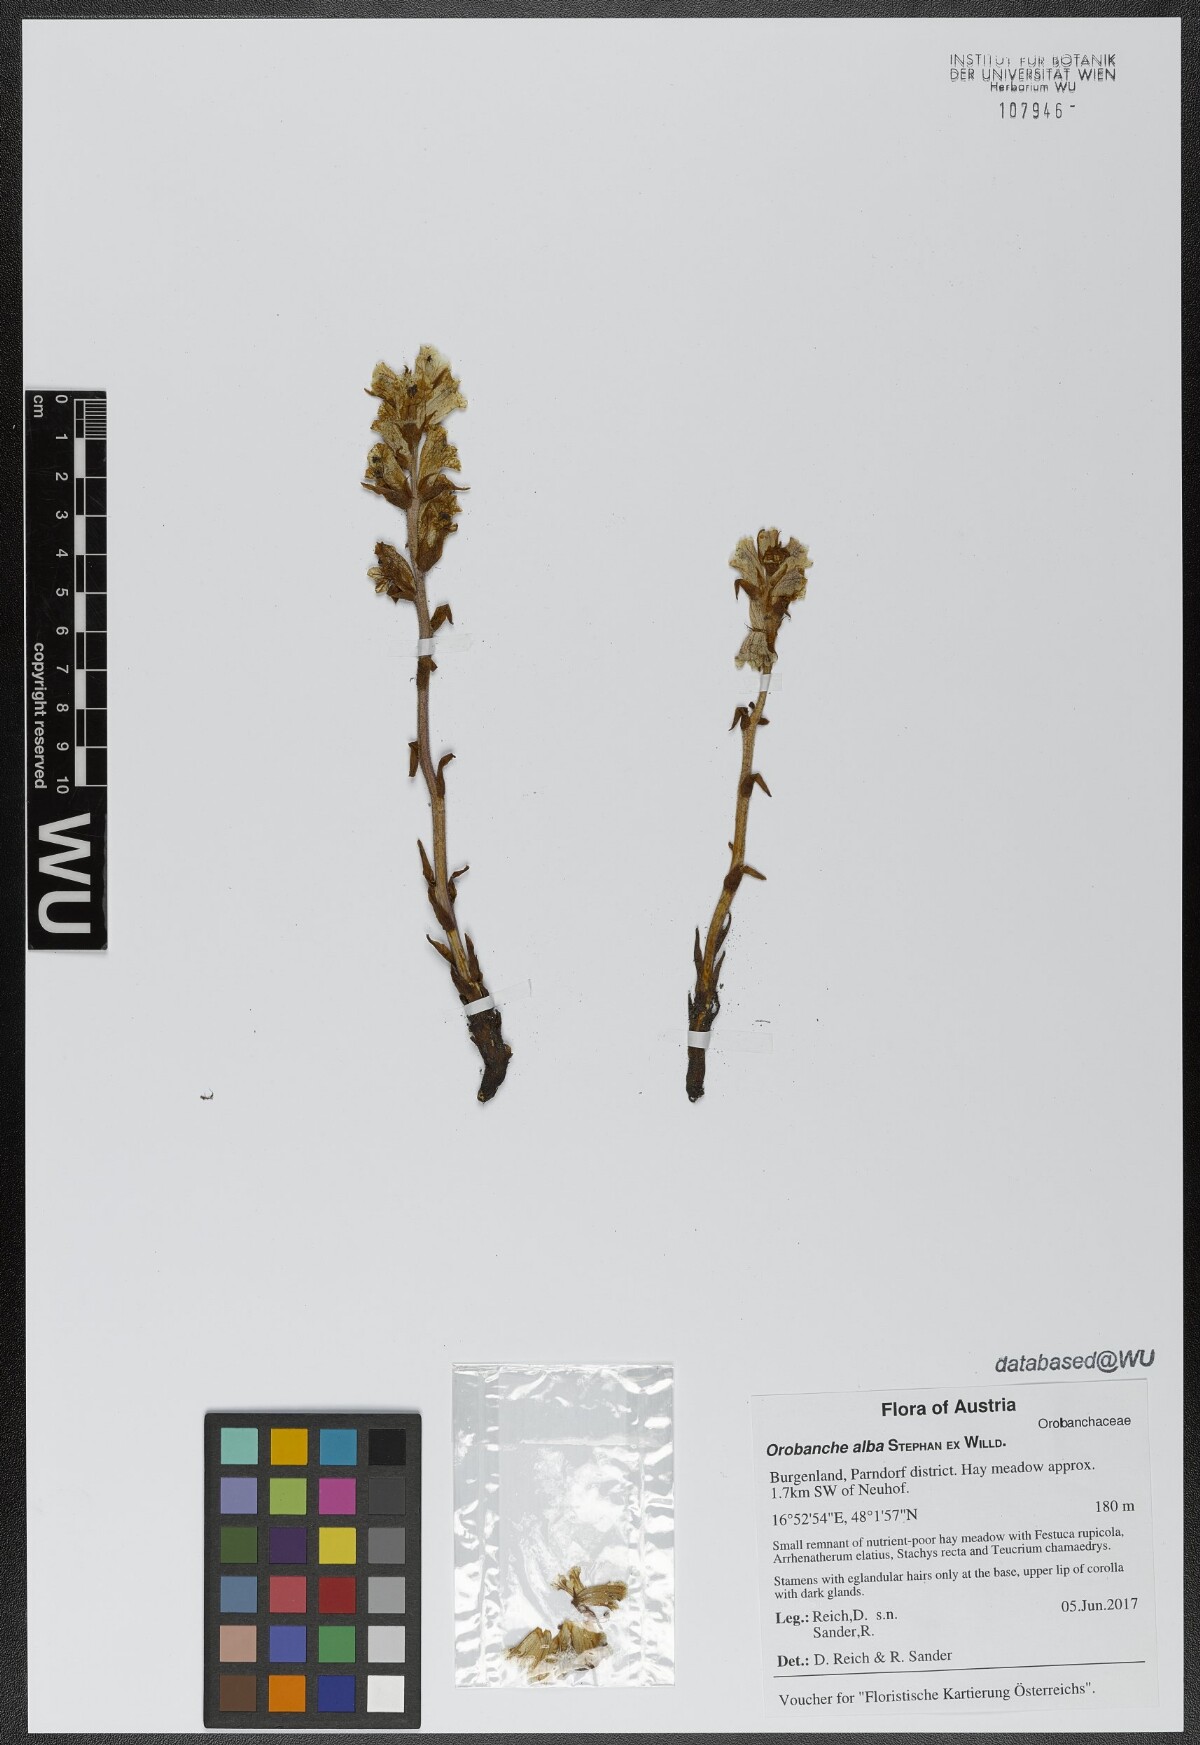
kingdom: Plantae
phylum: Tracheophyta
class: Magnoliopsida
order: Lamiales
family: Orobanchaceae
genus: Orobanche
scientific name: Orobanche alba
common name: Thyme broomrape
